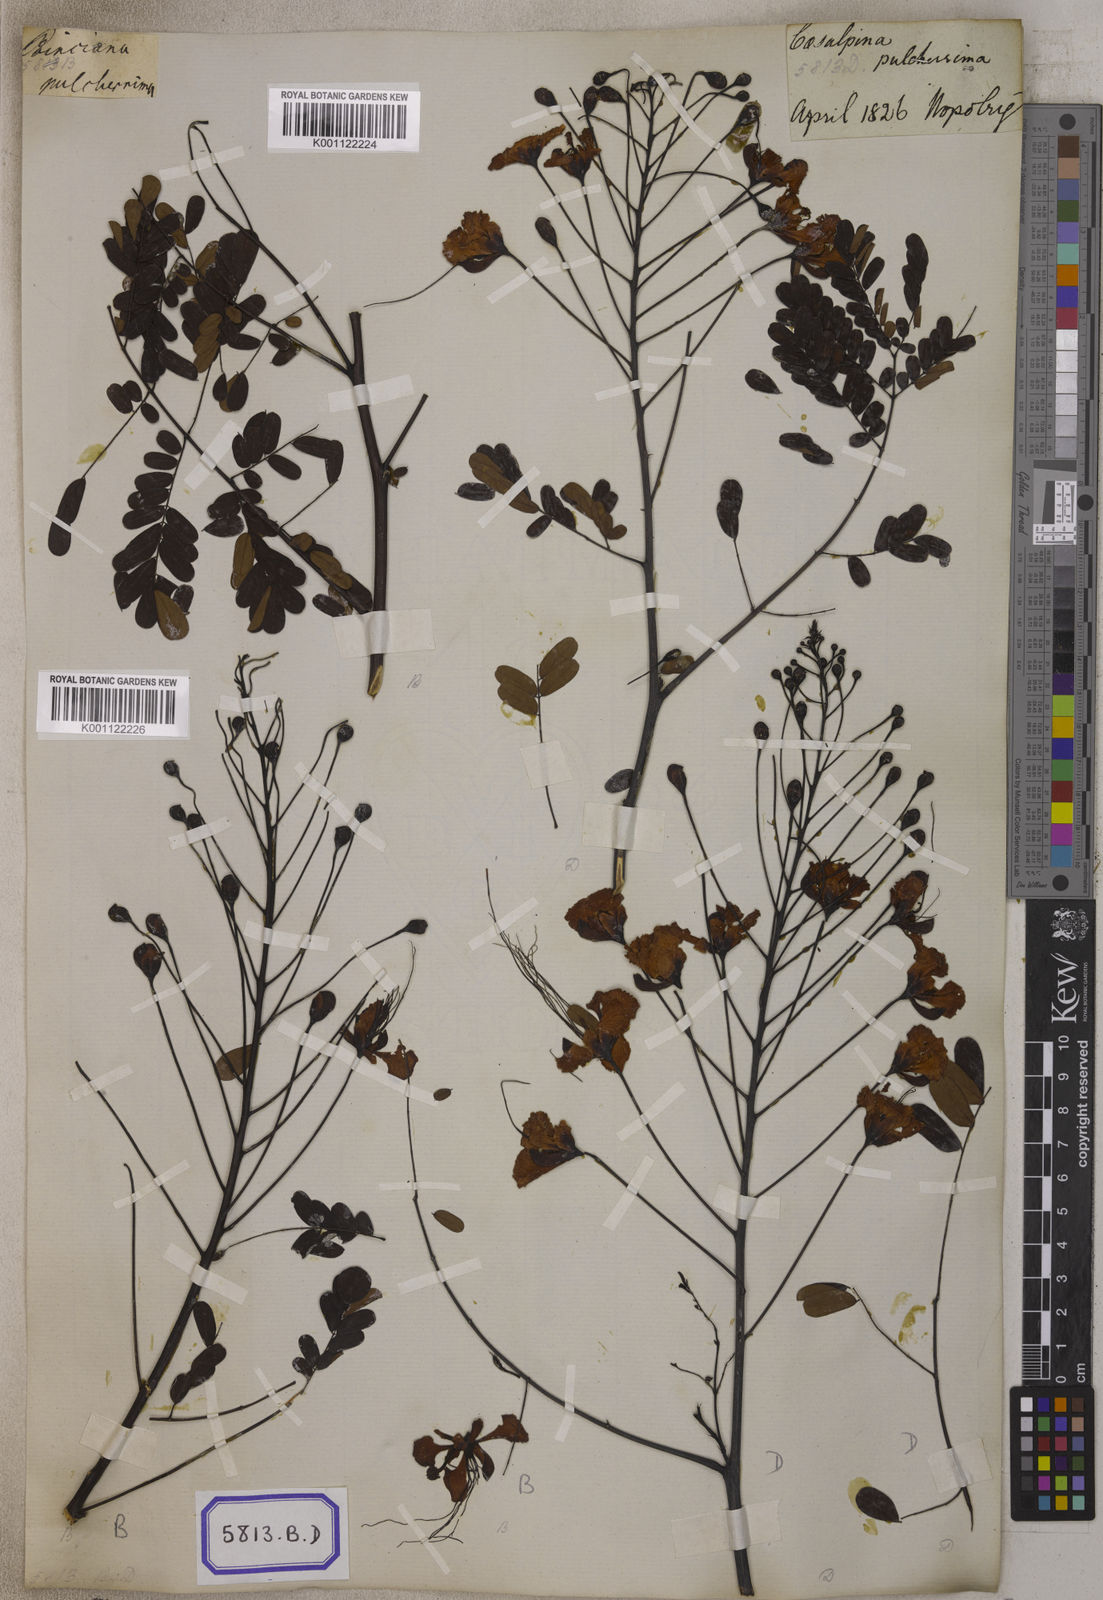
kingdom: Plantae
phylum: Tracheophyta
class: Magnoliopsida
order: Fabales
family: Fabaceae
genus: Caesalpinia
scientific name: Caesalpinia pulcherrima
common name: Pride-of-barbados
